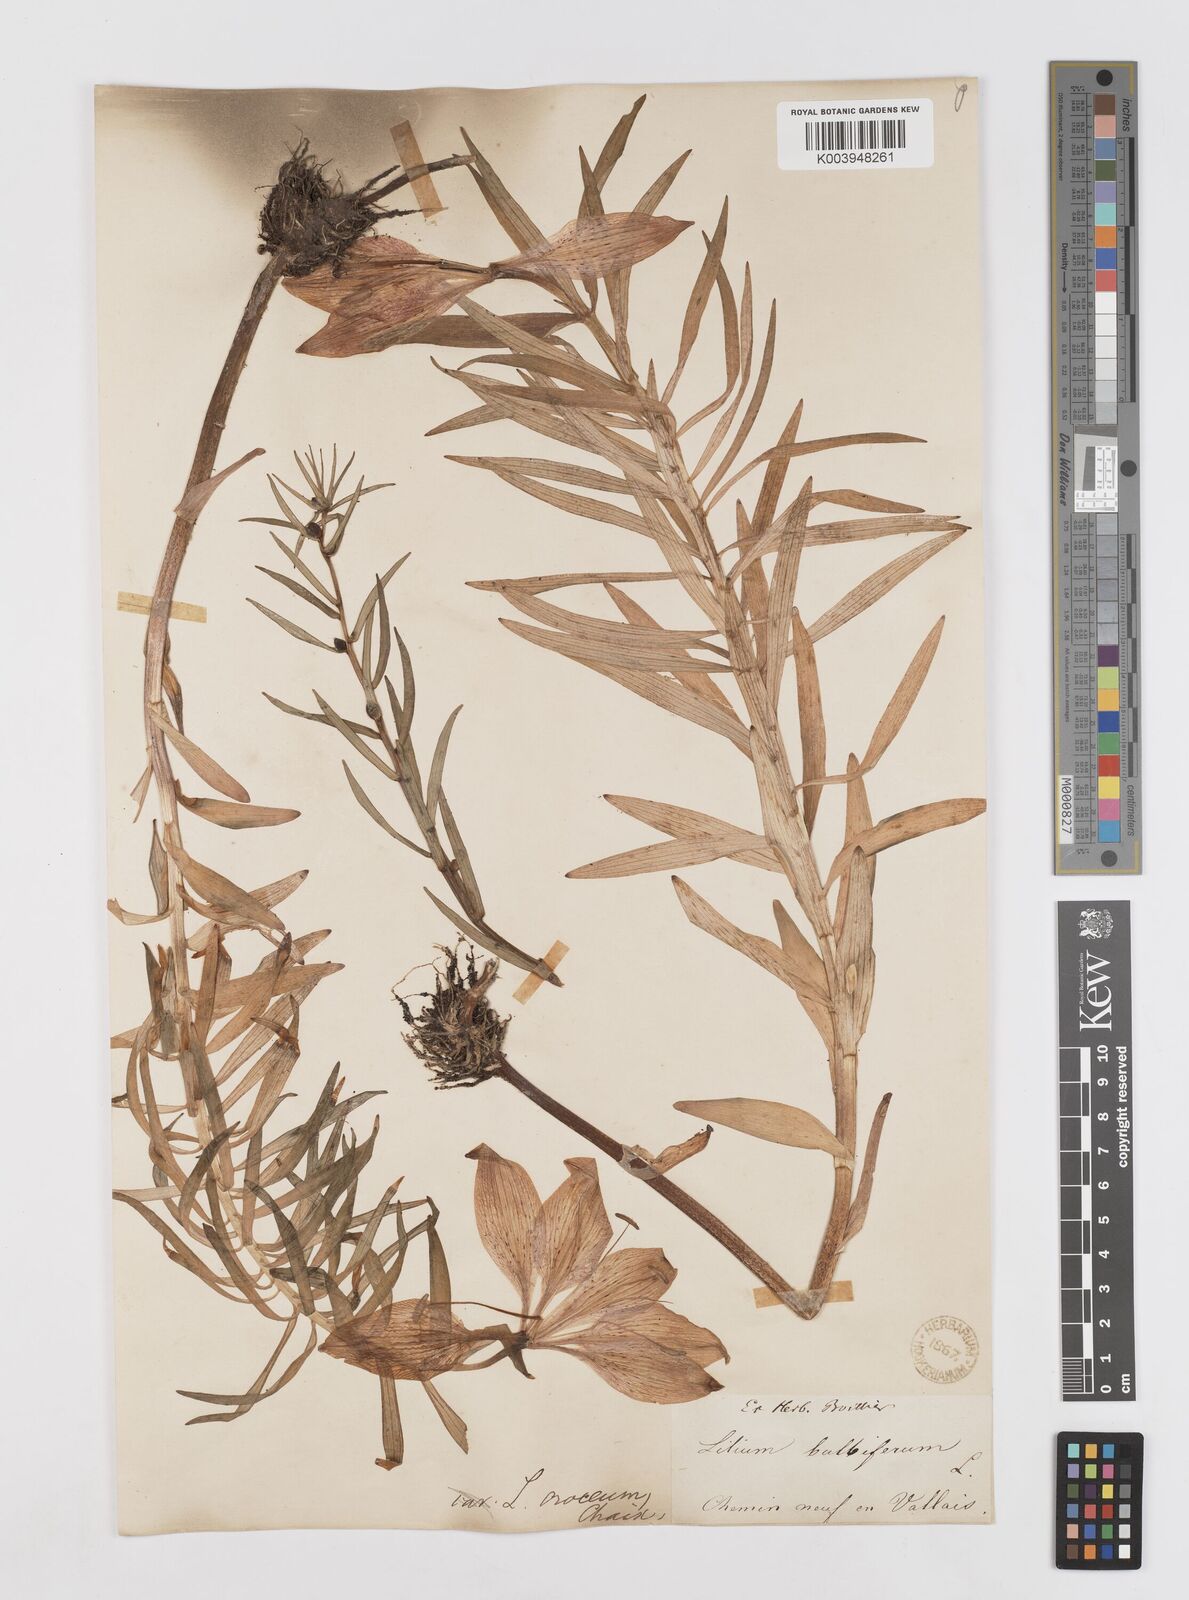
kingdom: Plantae
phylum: Tracheophyta
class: Liliopsida
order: Liliales
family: Liliaceae
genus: Lilium
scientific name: Lilium bulbiferum
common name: Orange lily
